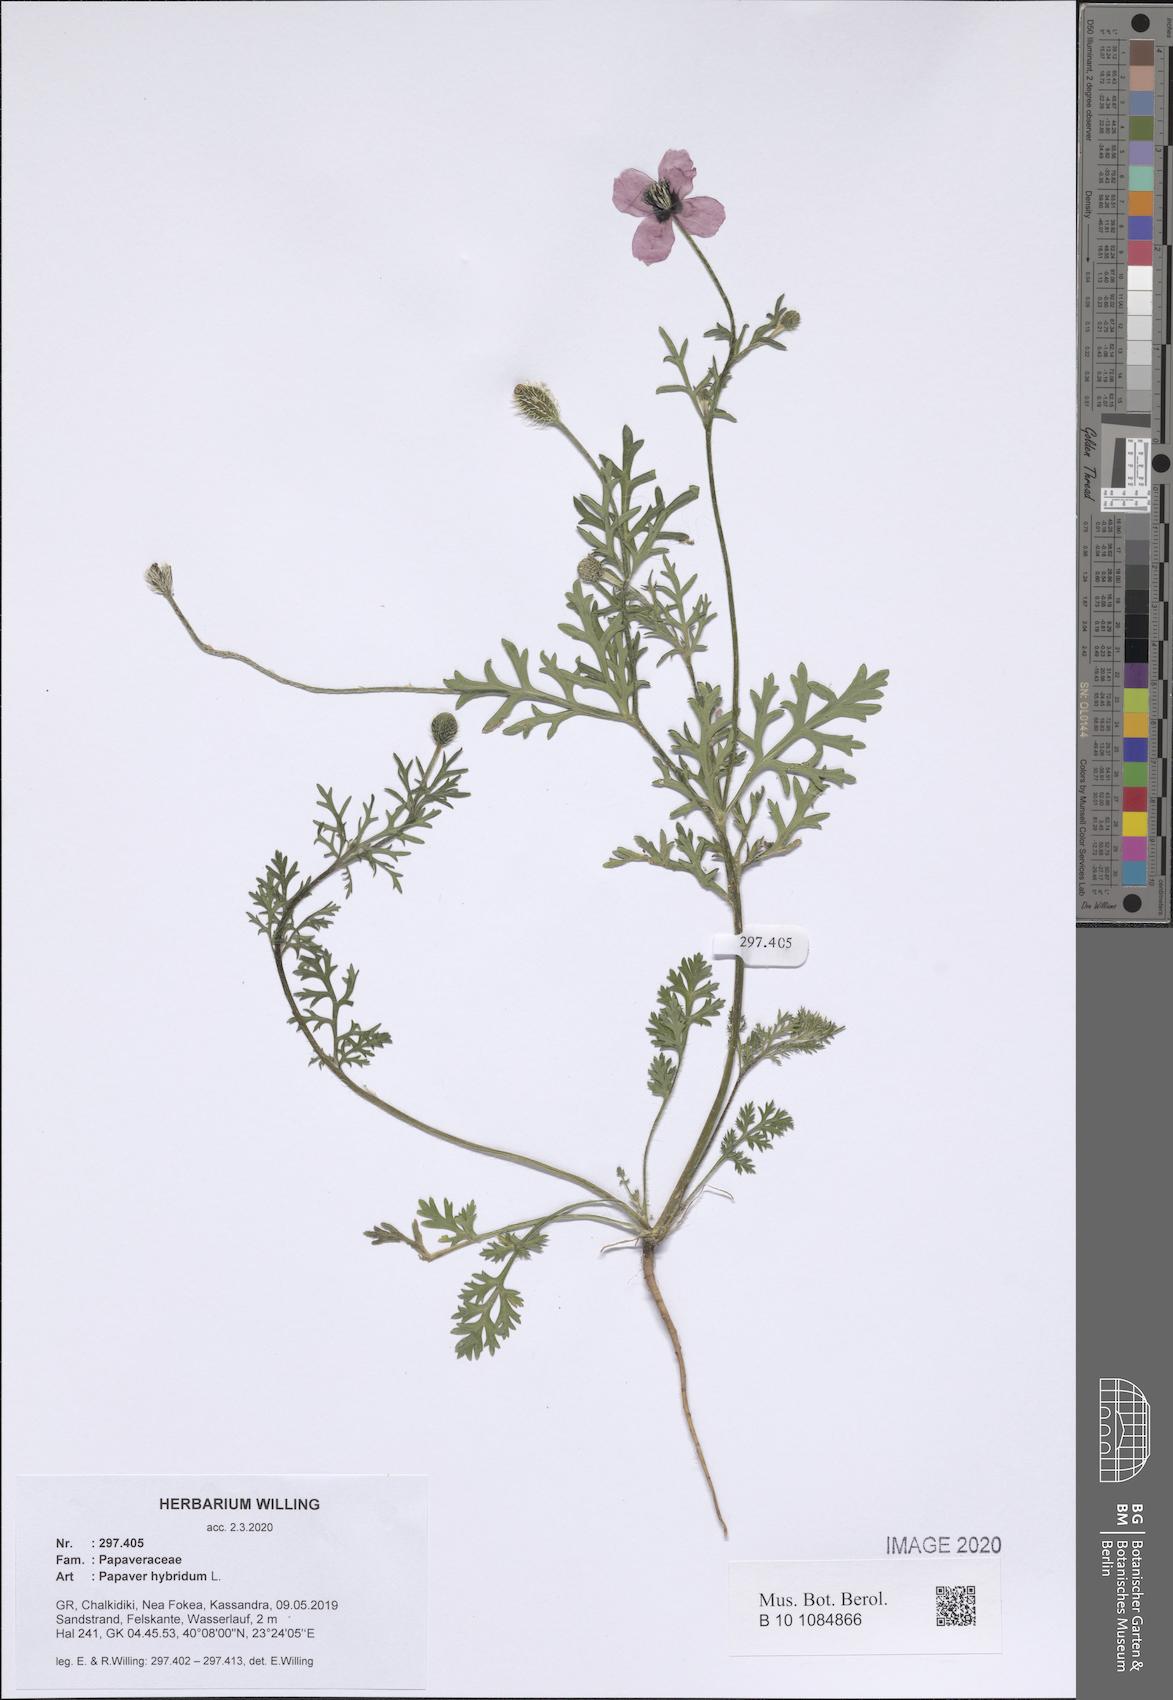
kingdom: Plantae
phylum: Tracheophyta
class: Magnoliopsida
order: Ranunculales
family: Papaveraceae
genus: Roemeria
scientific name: Roemeria hispida
